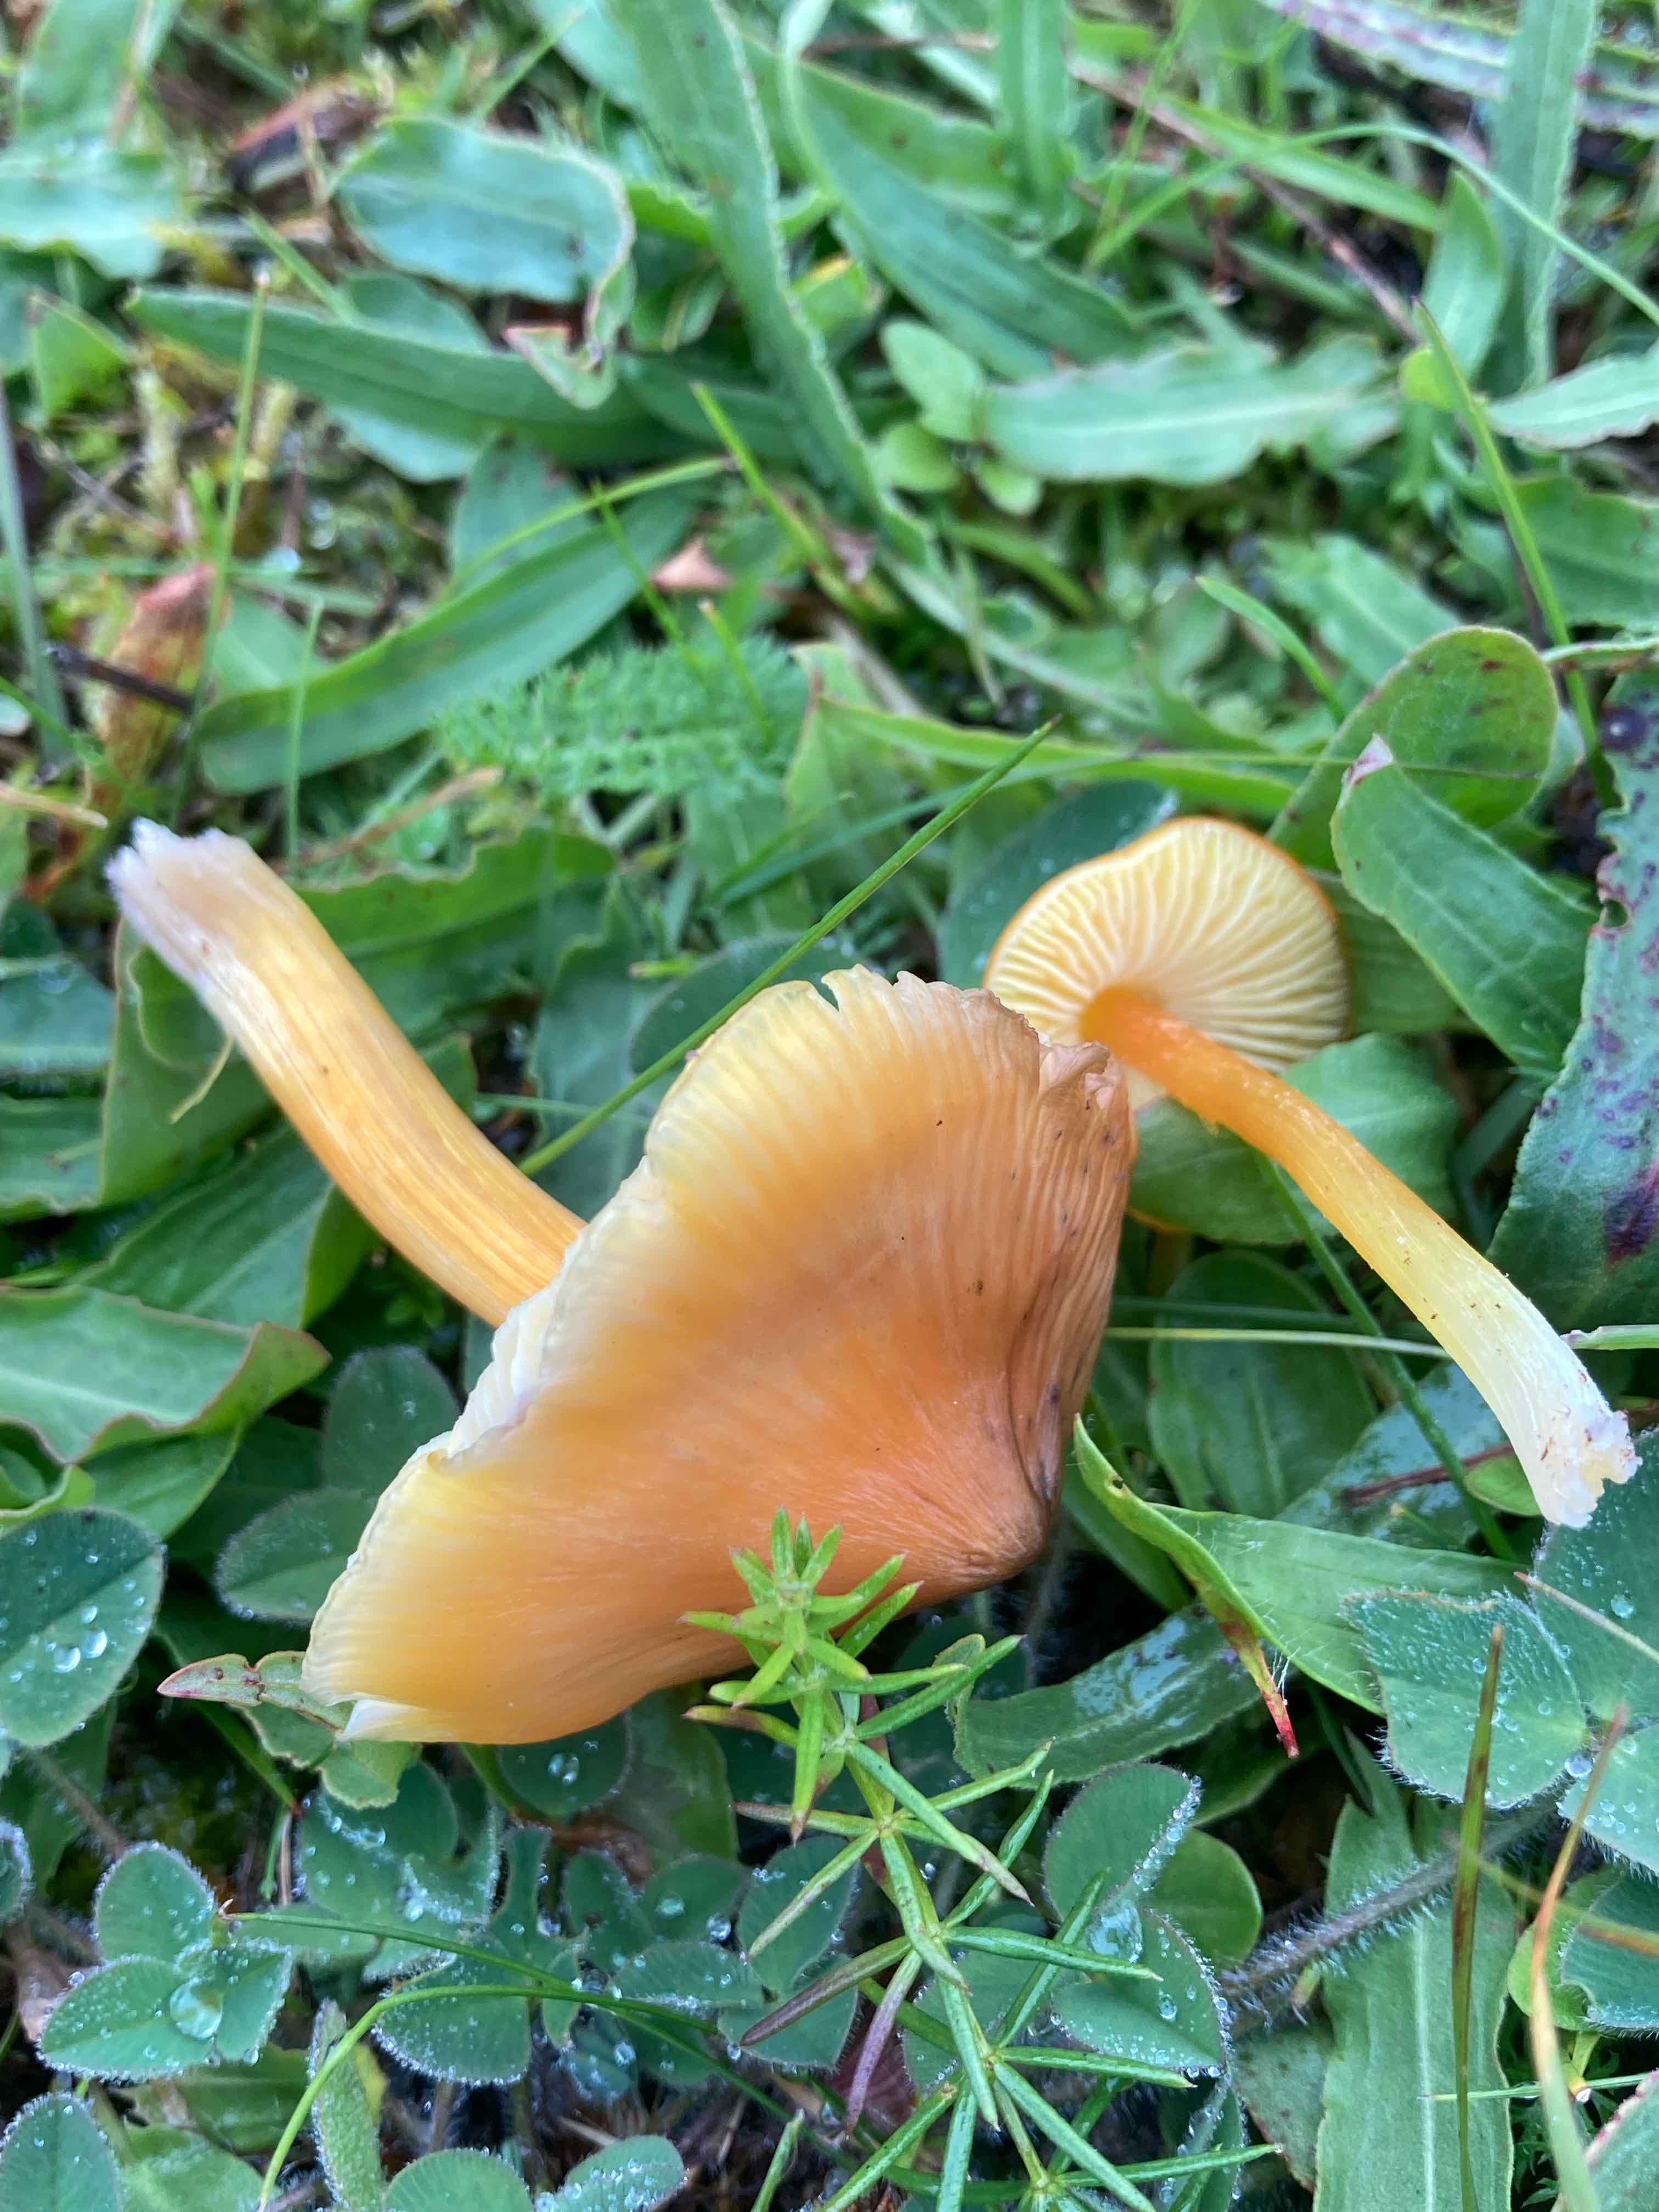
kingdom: Fungi
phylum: Basidiomycota
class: Agaricomycetes
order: Agaricales
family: Hygrophoraceae
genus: Hygrocybe
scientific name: Hygrocybe
